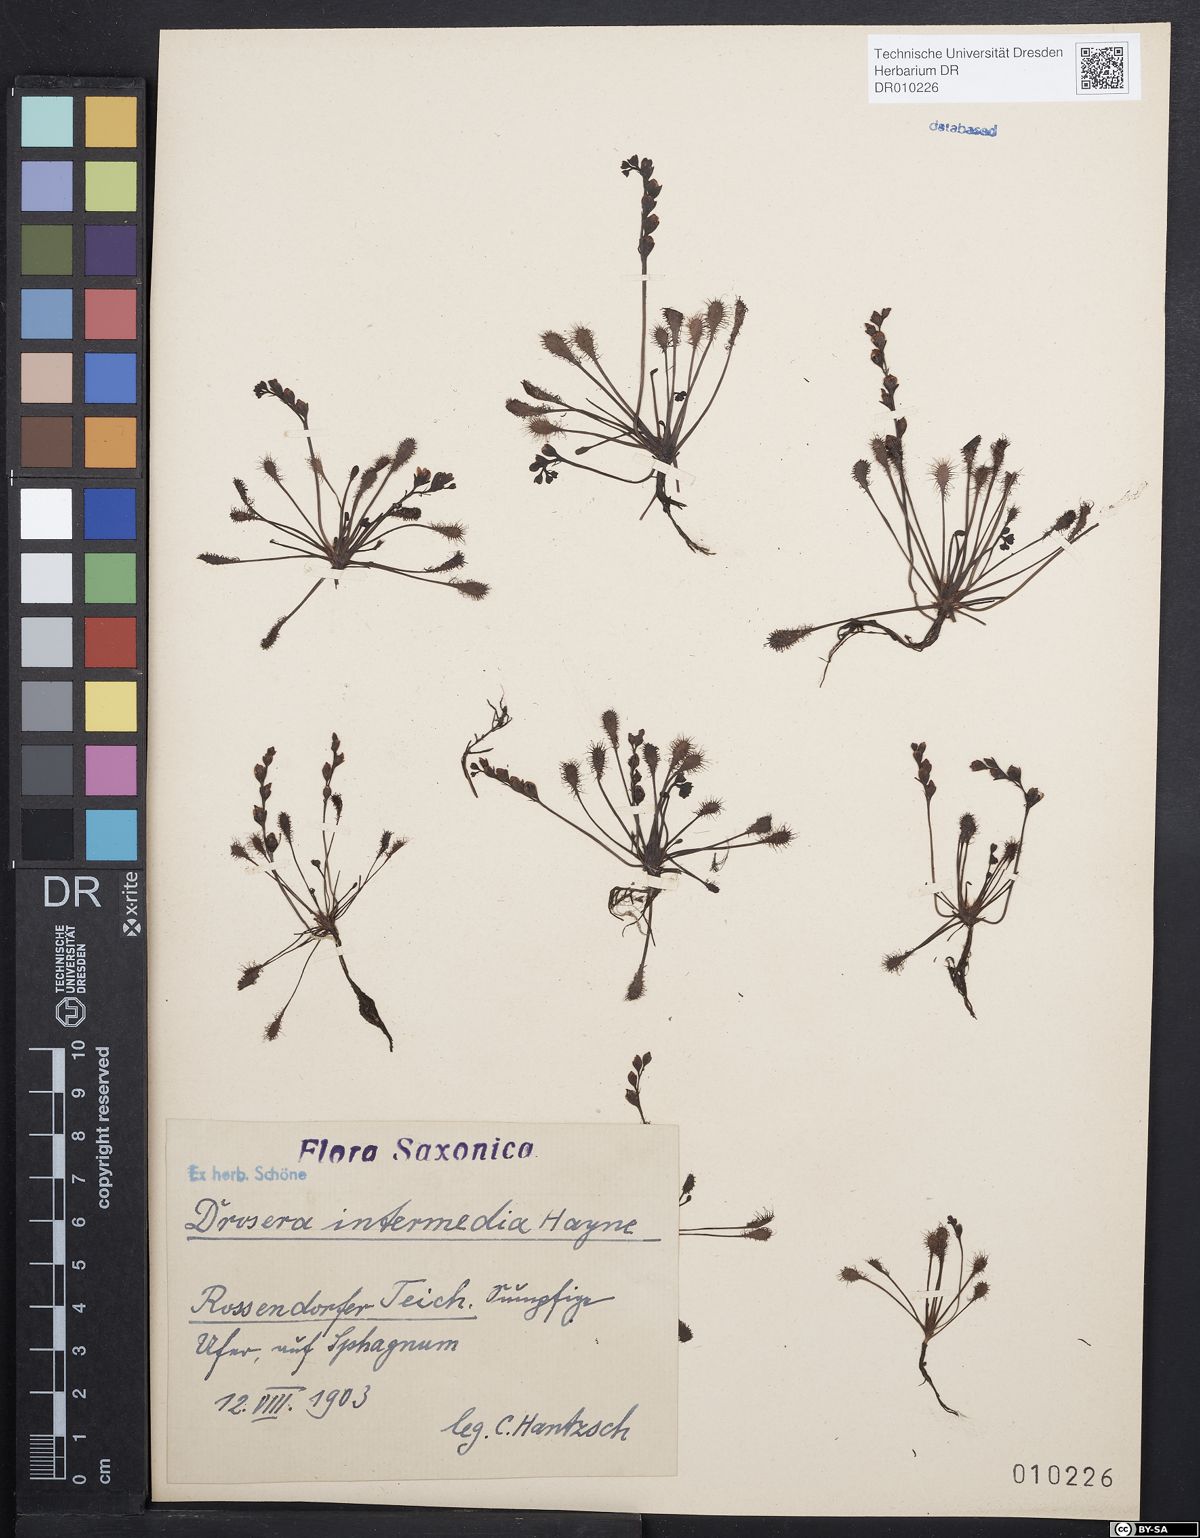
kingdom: Plantae
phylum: Tracheophyta
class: Magnoliopsida
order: Caryophyllales
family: Droseraceae
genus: Drosera
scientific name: Drosera intermedia
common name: Oblong-leaved sundew
